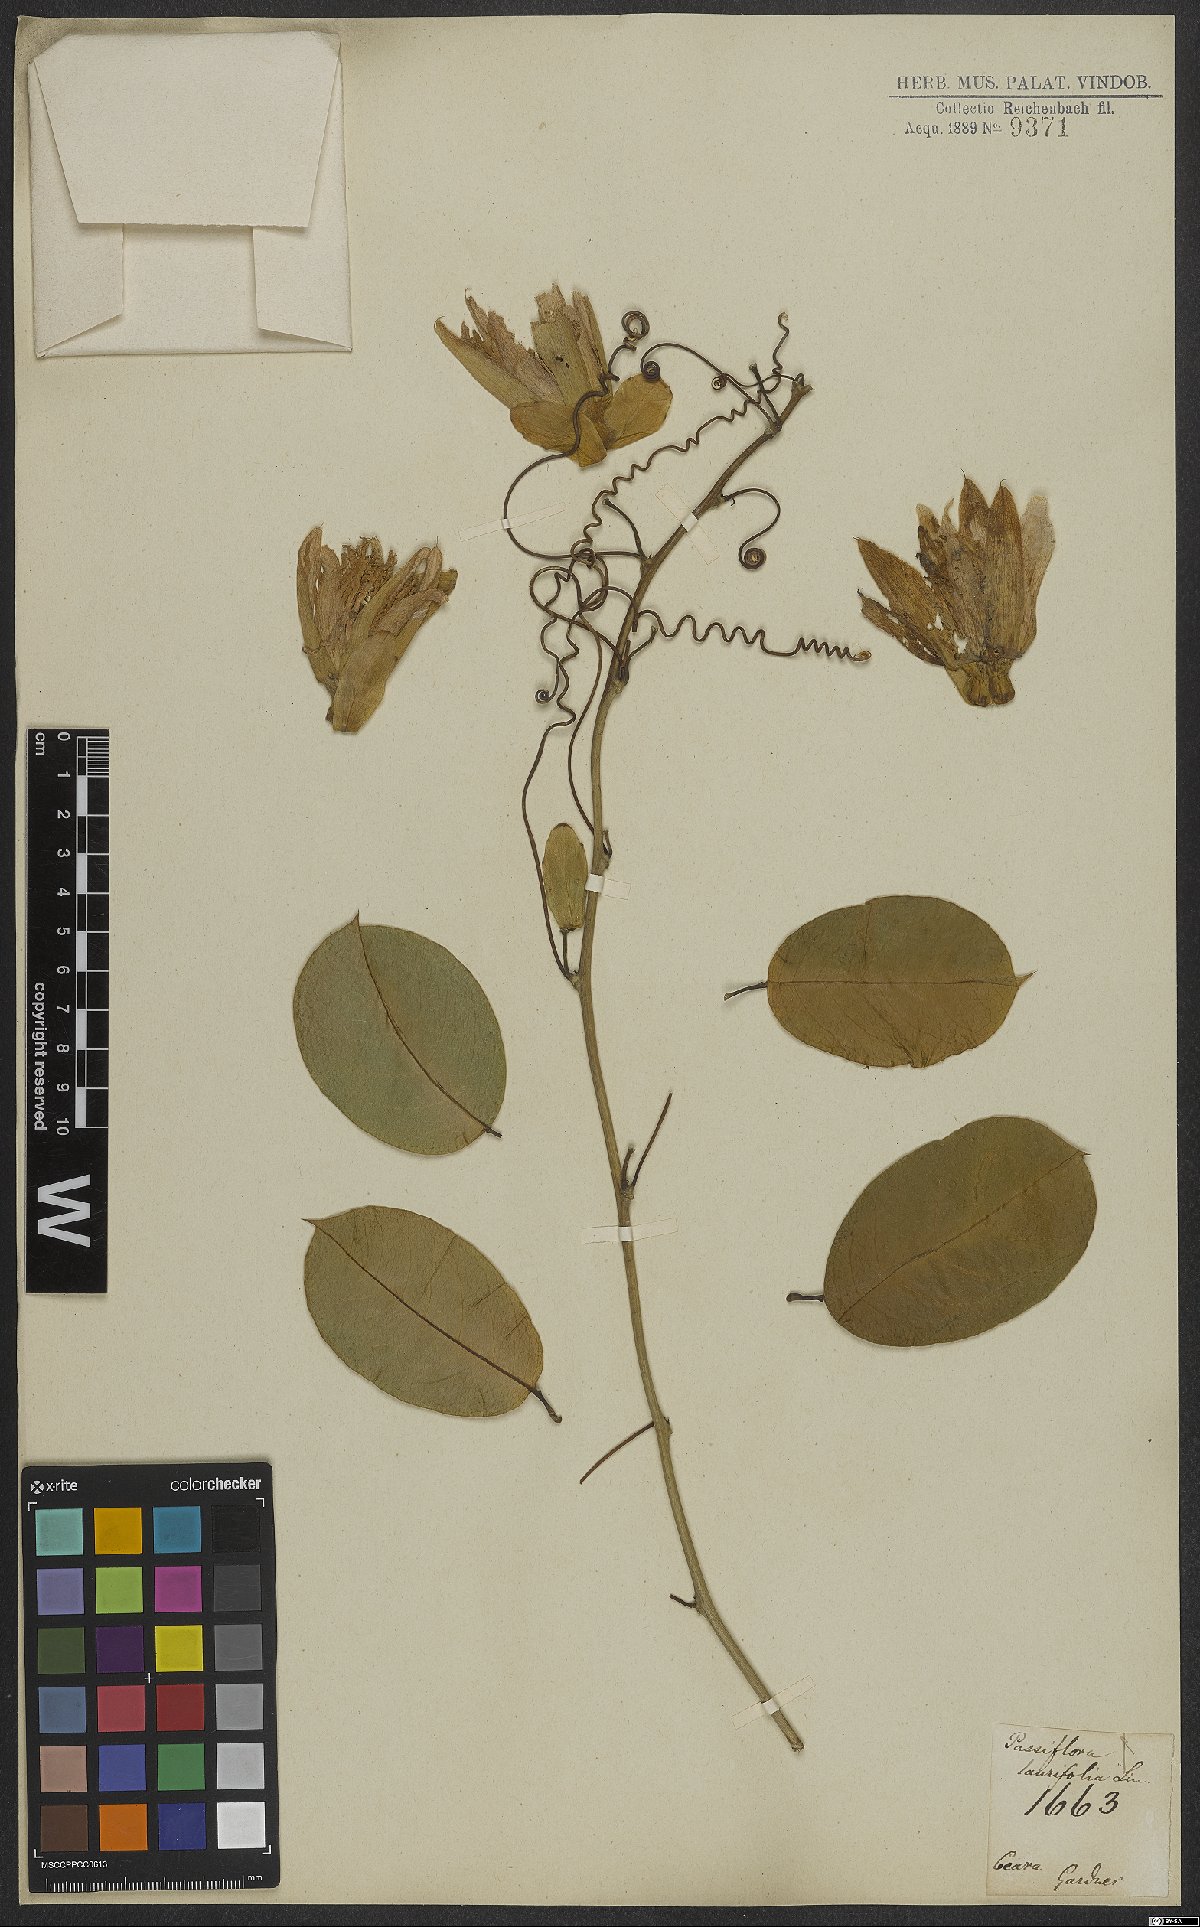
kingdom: Plantae
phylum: Tracheophyta
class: Magnoliopsida
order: Malpighiales
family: Passifloraceae
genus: Passiflora
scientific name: Passiflora laurifolia
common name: Bell apple
